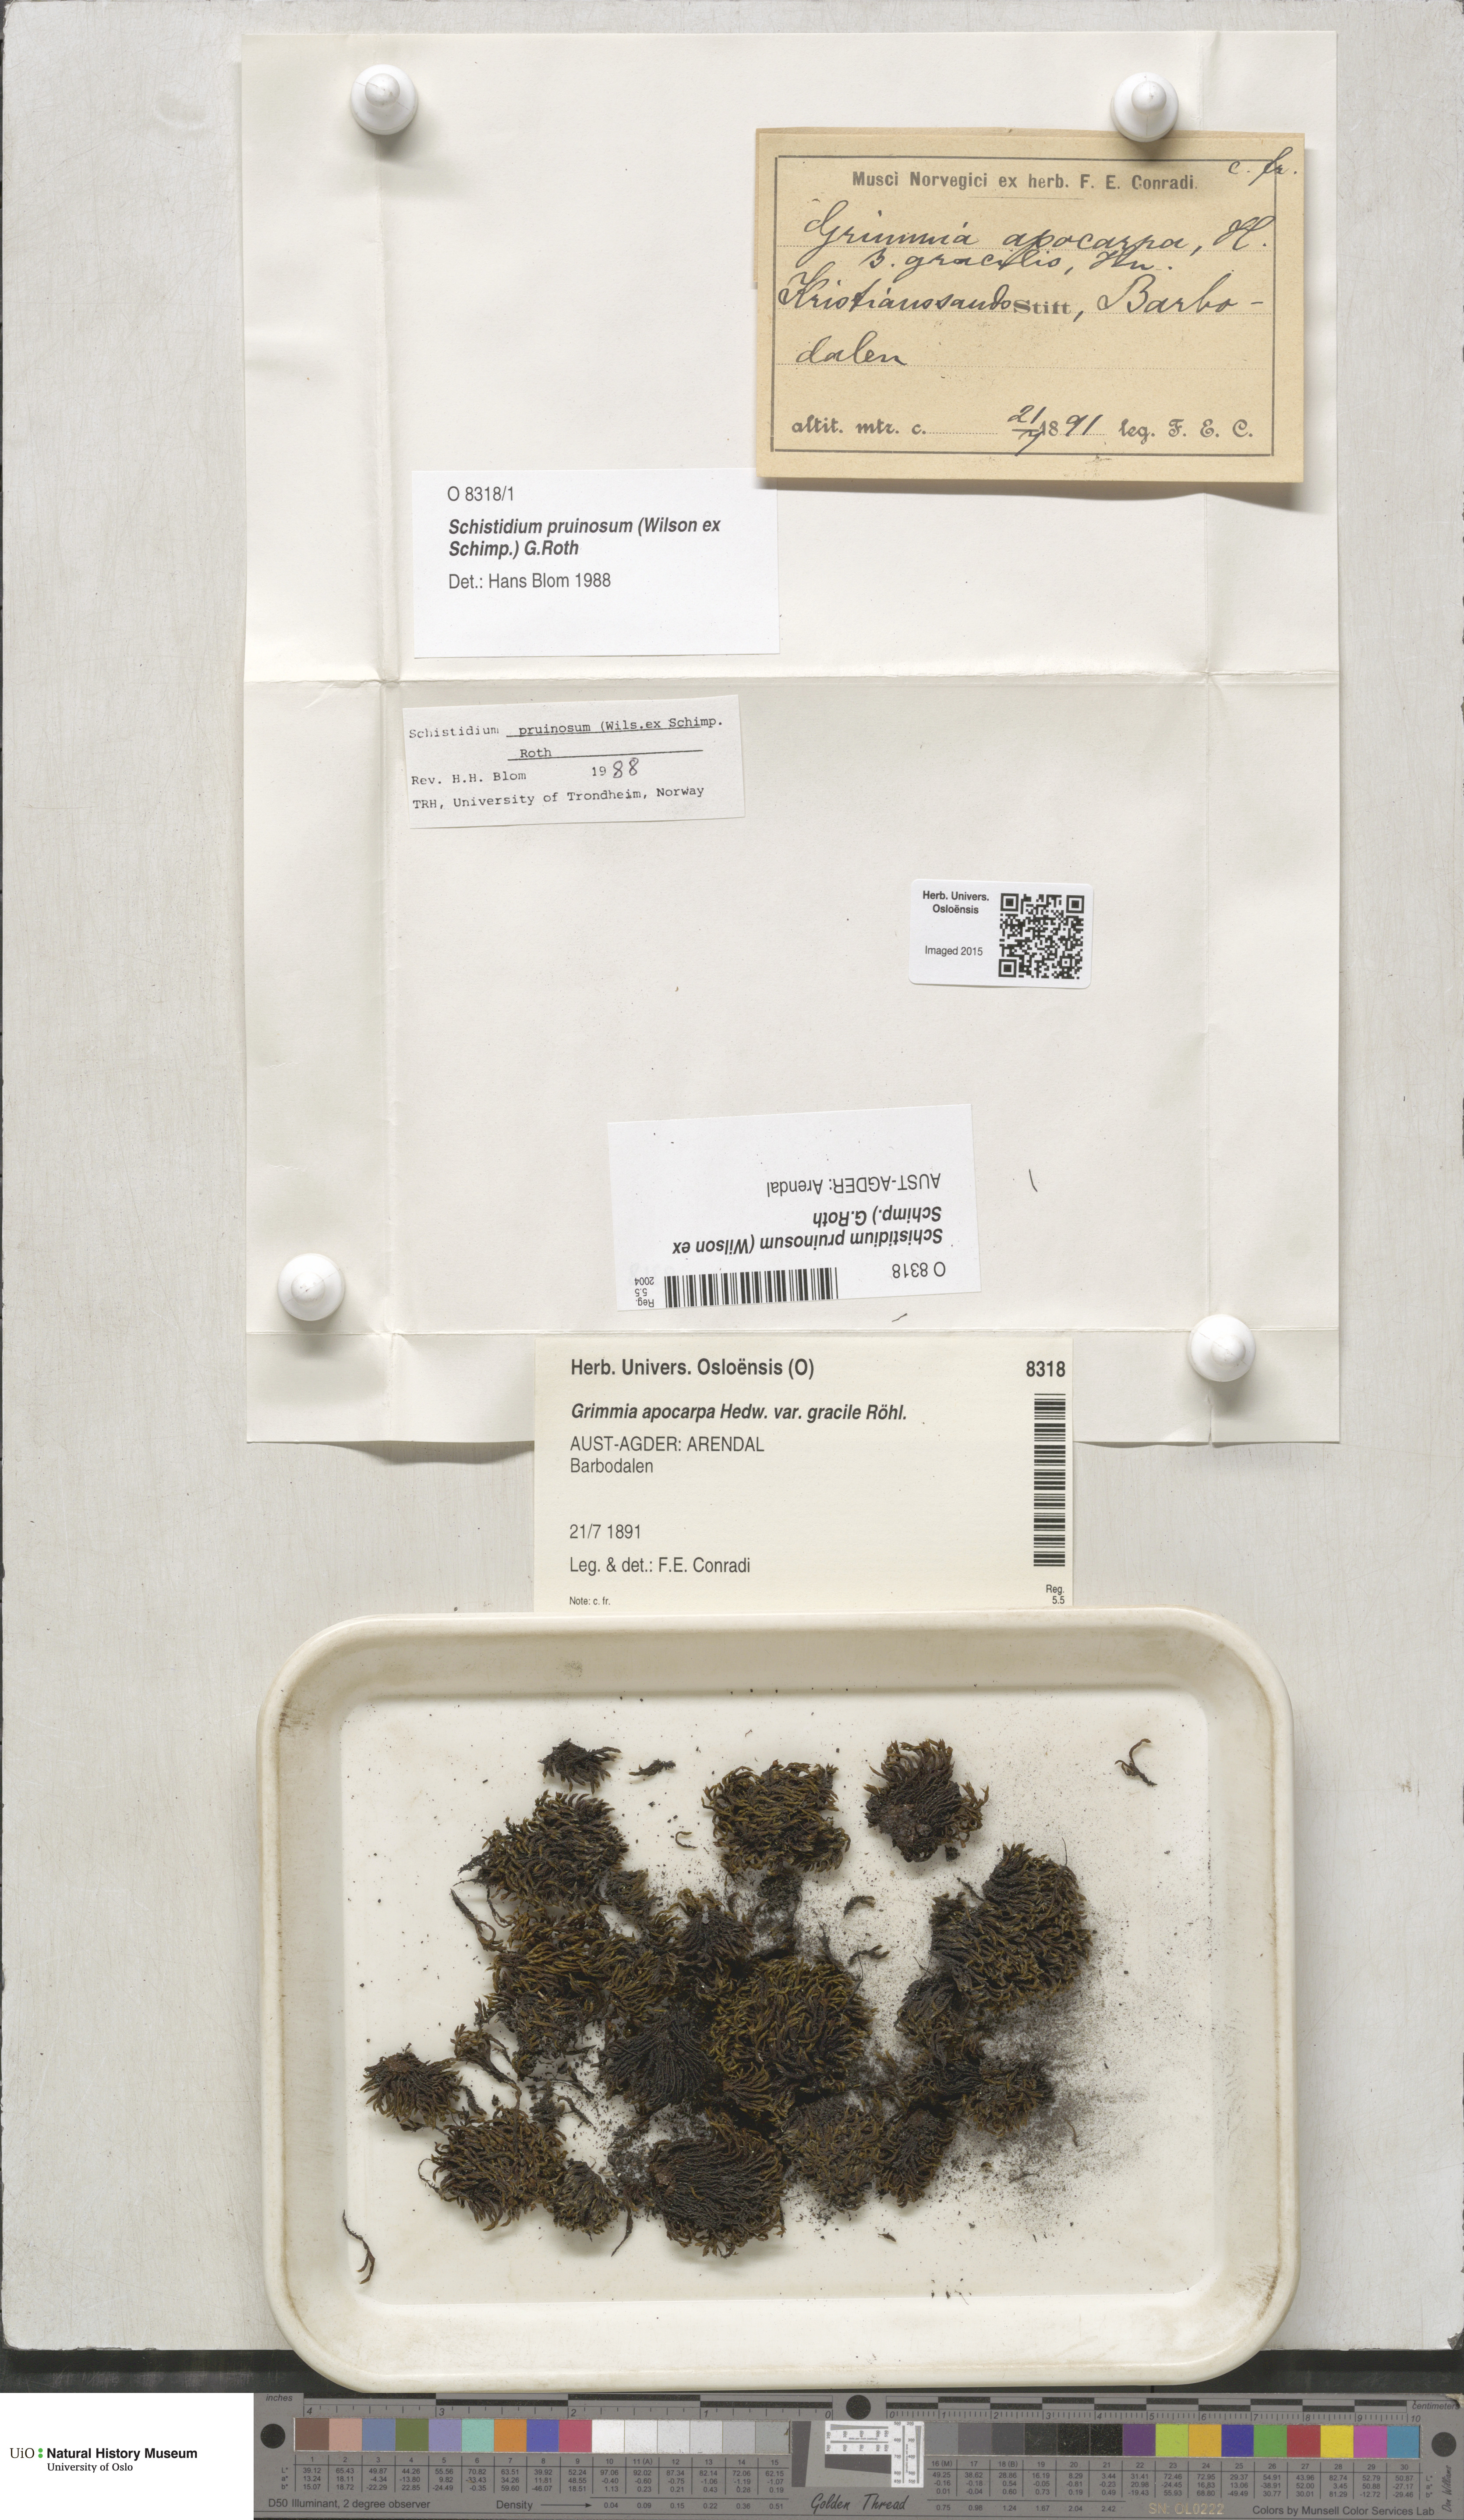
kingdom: Plantae
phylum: Bryophyta
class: Bryopsida
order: Grimmiales
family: Grimmiaceae
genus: Schistidium
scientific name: Schistidium pruinosum
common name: Mealy grimmia
